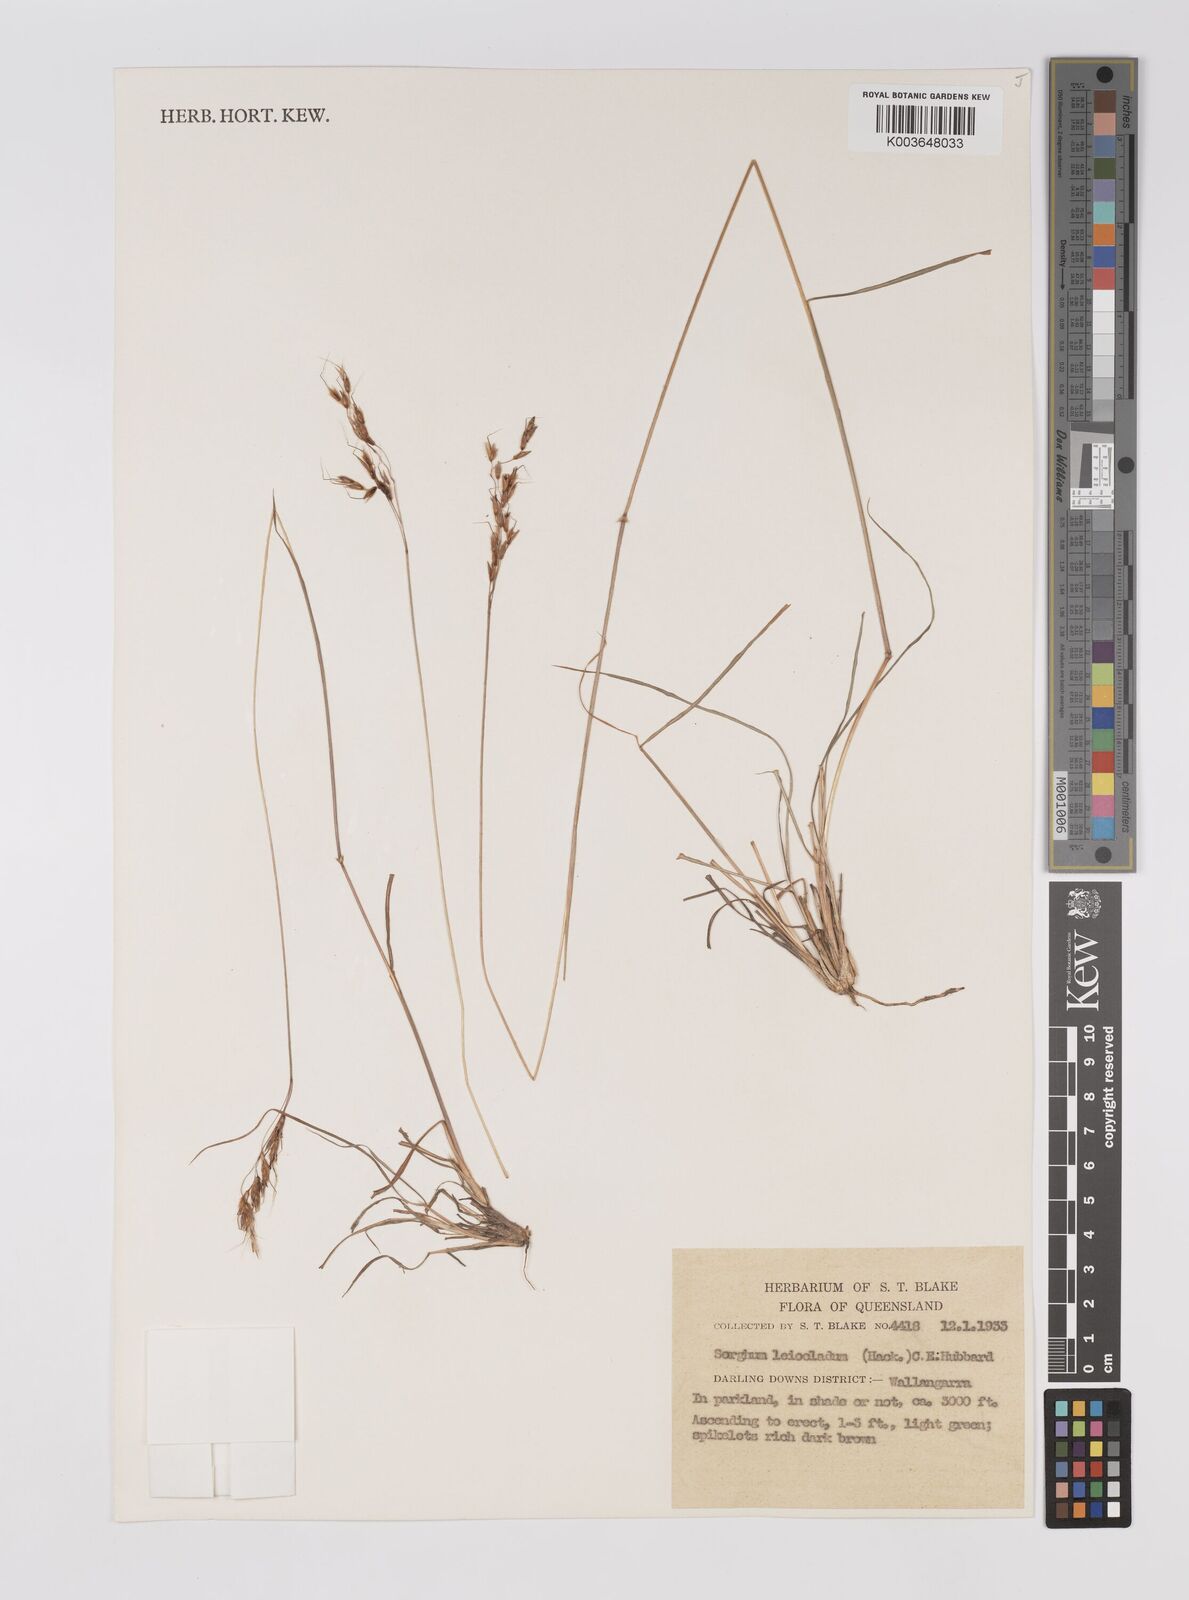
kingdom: Plantae
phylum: Tracheophyta
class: Liliopsida
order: Poales
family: Poaceae
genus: Sarga
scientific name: Sarga leioclada
